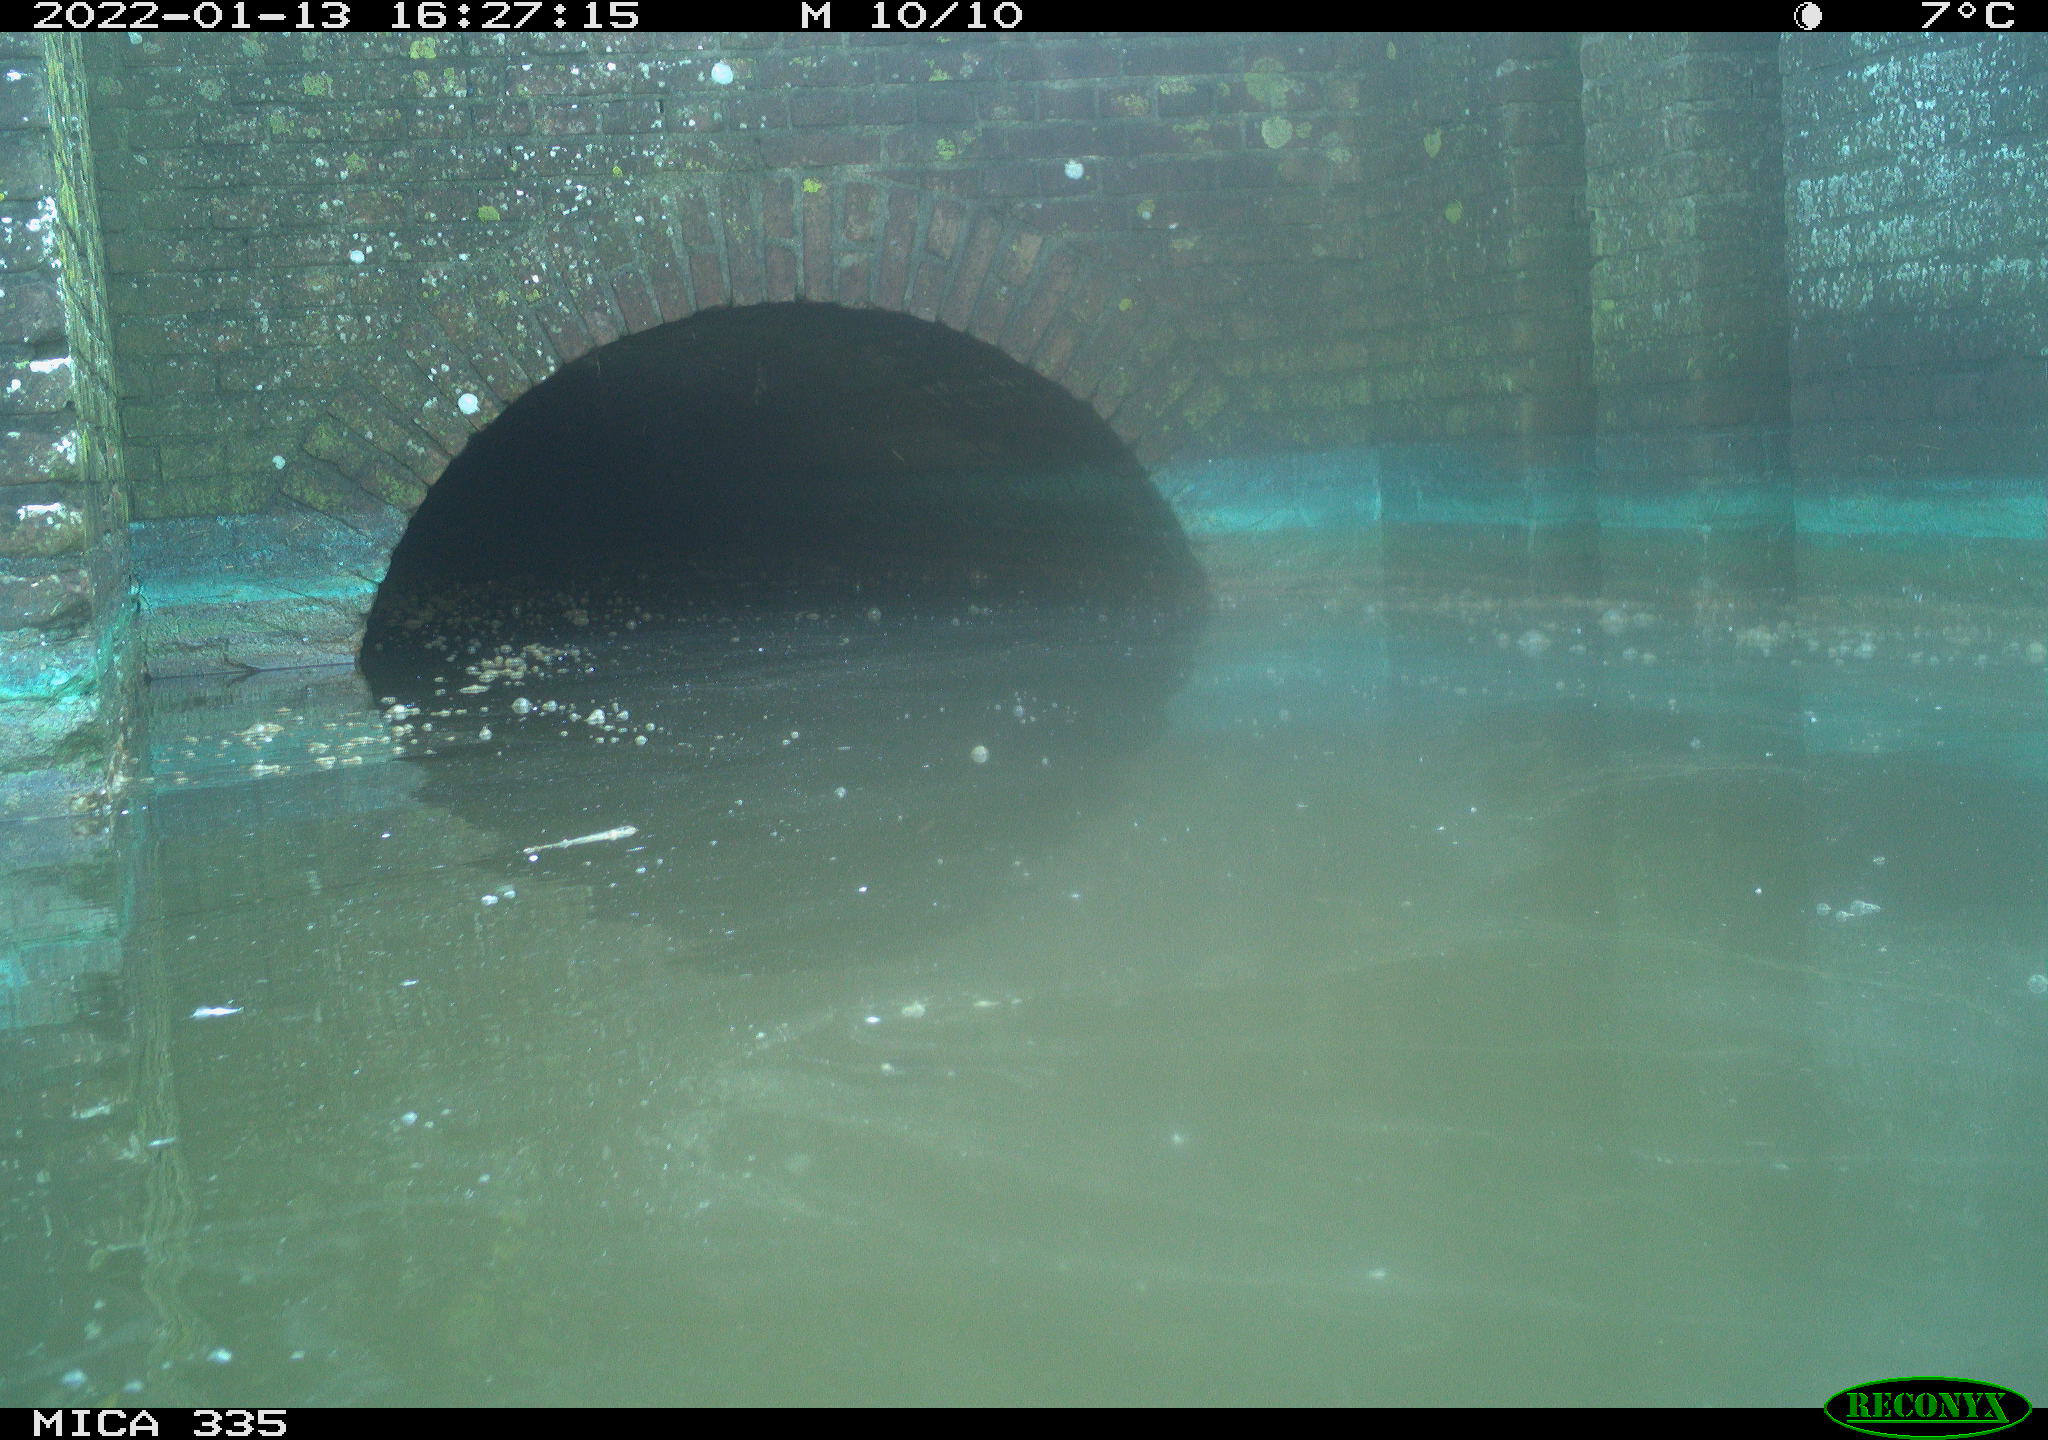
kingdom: Animalia
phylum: Chordata
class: Aves
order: Gruiformes
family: Rallidae
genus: Fulica
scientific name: Fulica atra
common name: Eurasian coot
